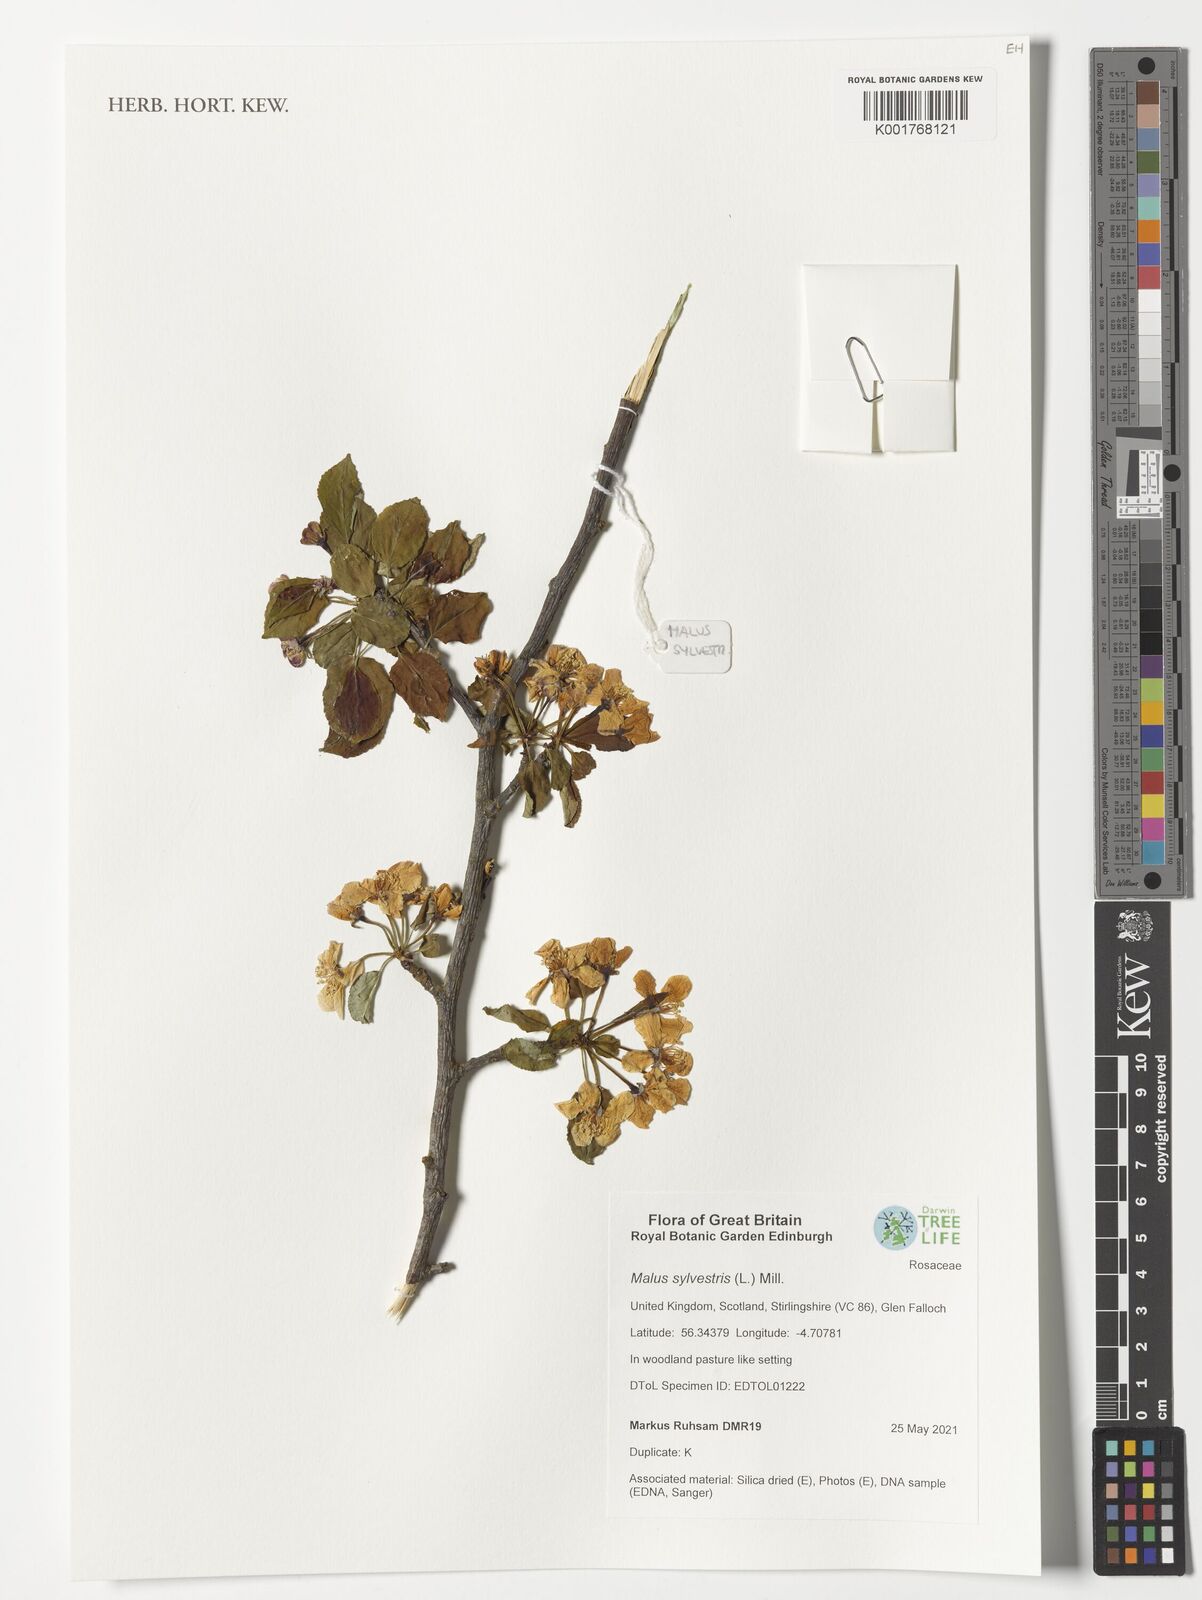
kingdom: Plantae
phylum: Tracheophyta
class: Magnoliopsida
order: Rosales
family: Rosaceae
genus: Malus
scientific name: Malus sylvestris
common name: Crab apple
